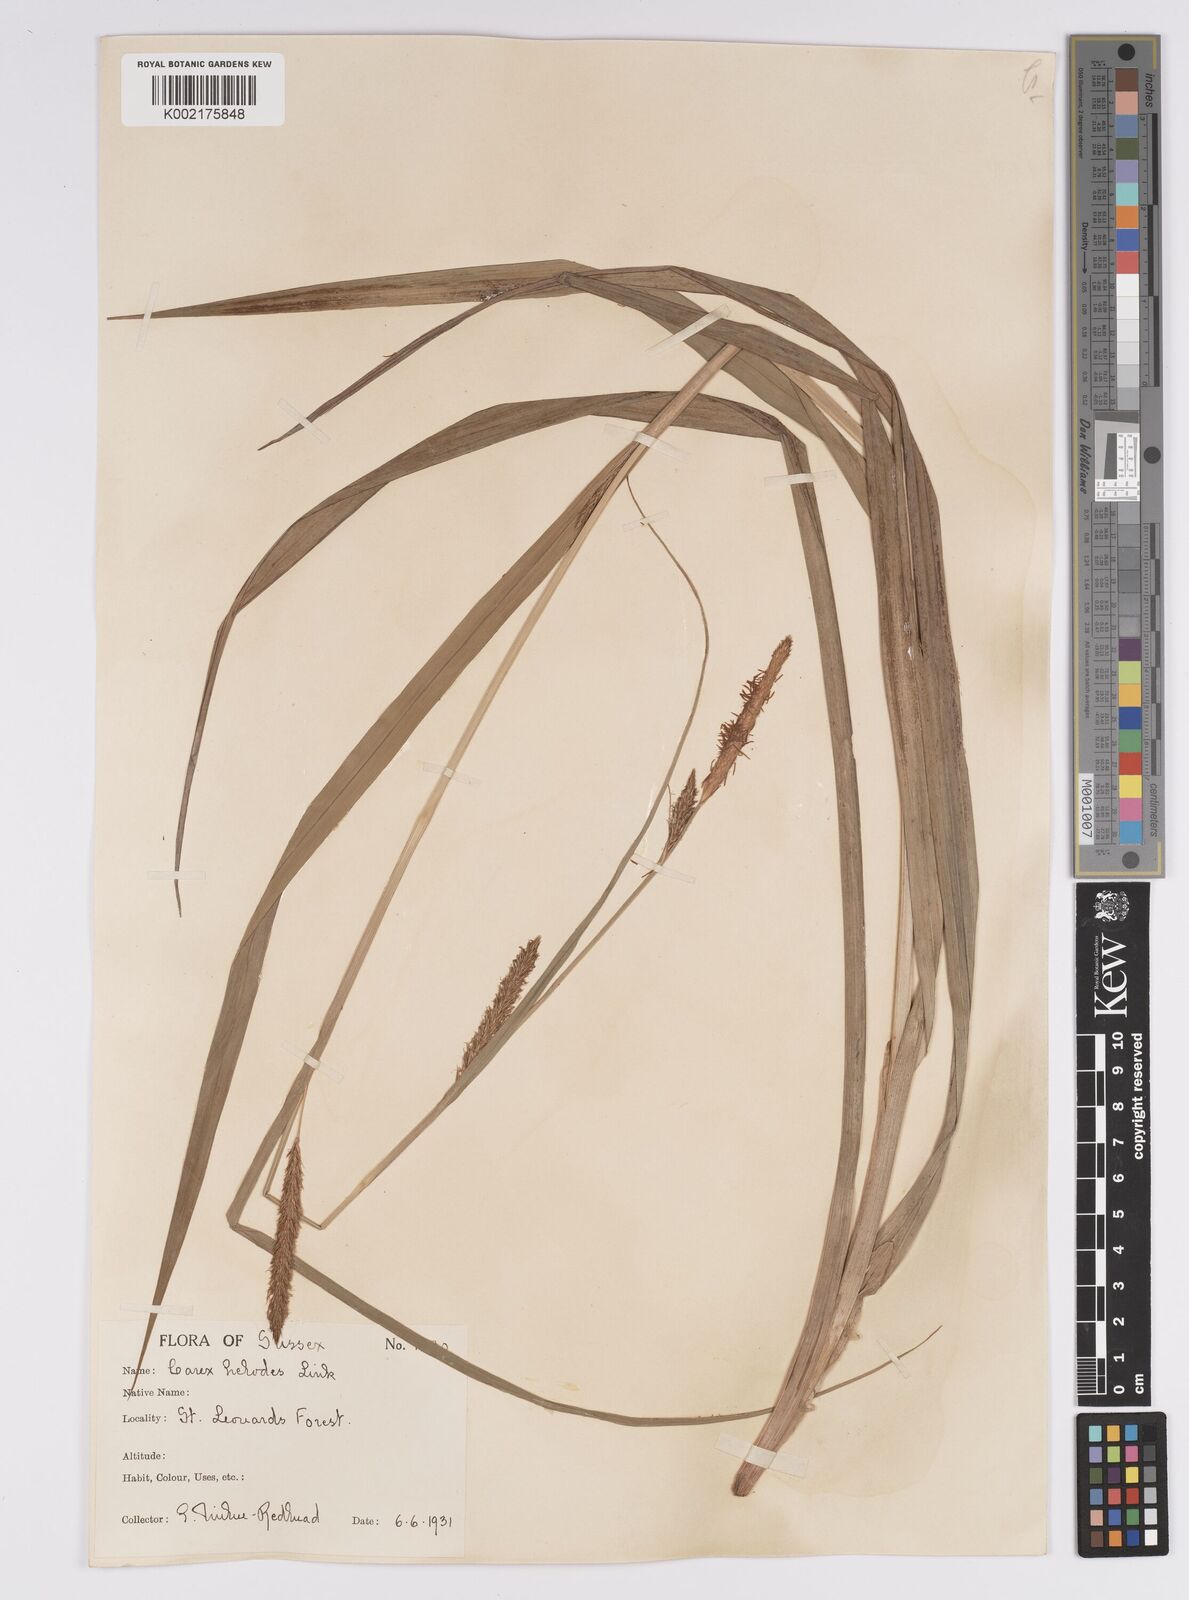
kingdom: Plantae
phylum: Tracheophyta
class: Liliopsida
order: Poales
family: Cyperaceae
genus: Carex
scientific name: Carex laevigata
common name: Smooth-stalked sedge
